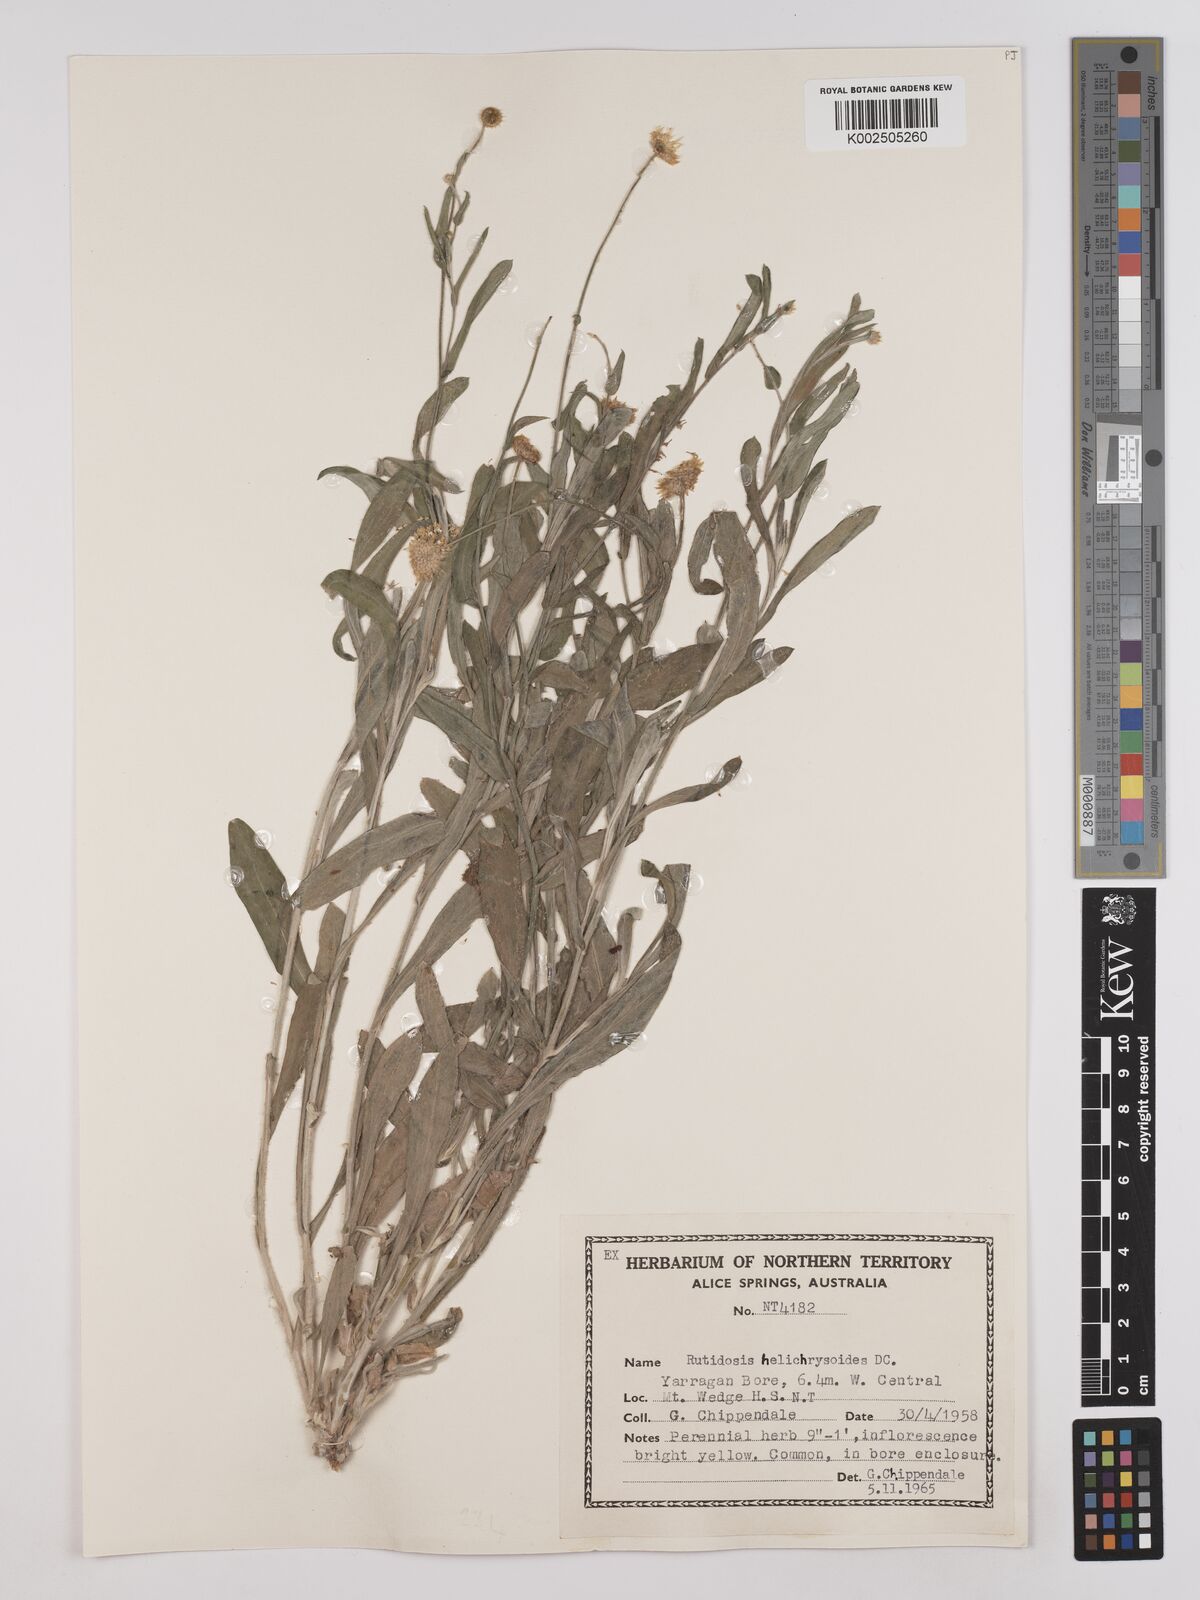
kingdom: Plantae
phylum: Tracheophyta
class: Magnoliopsida
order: Asterales
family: Asteraceae
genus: Rutidosis
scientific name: Rutidosis helichrysoides
